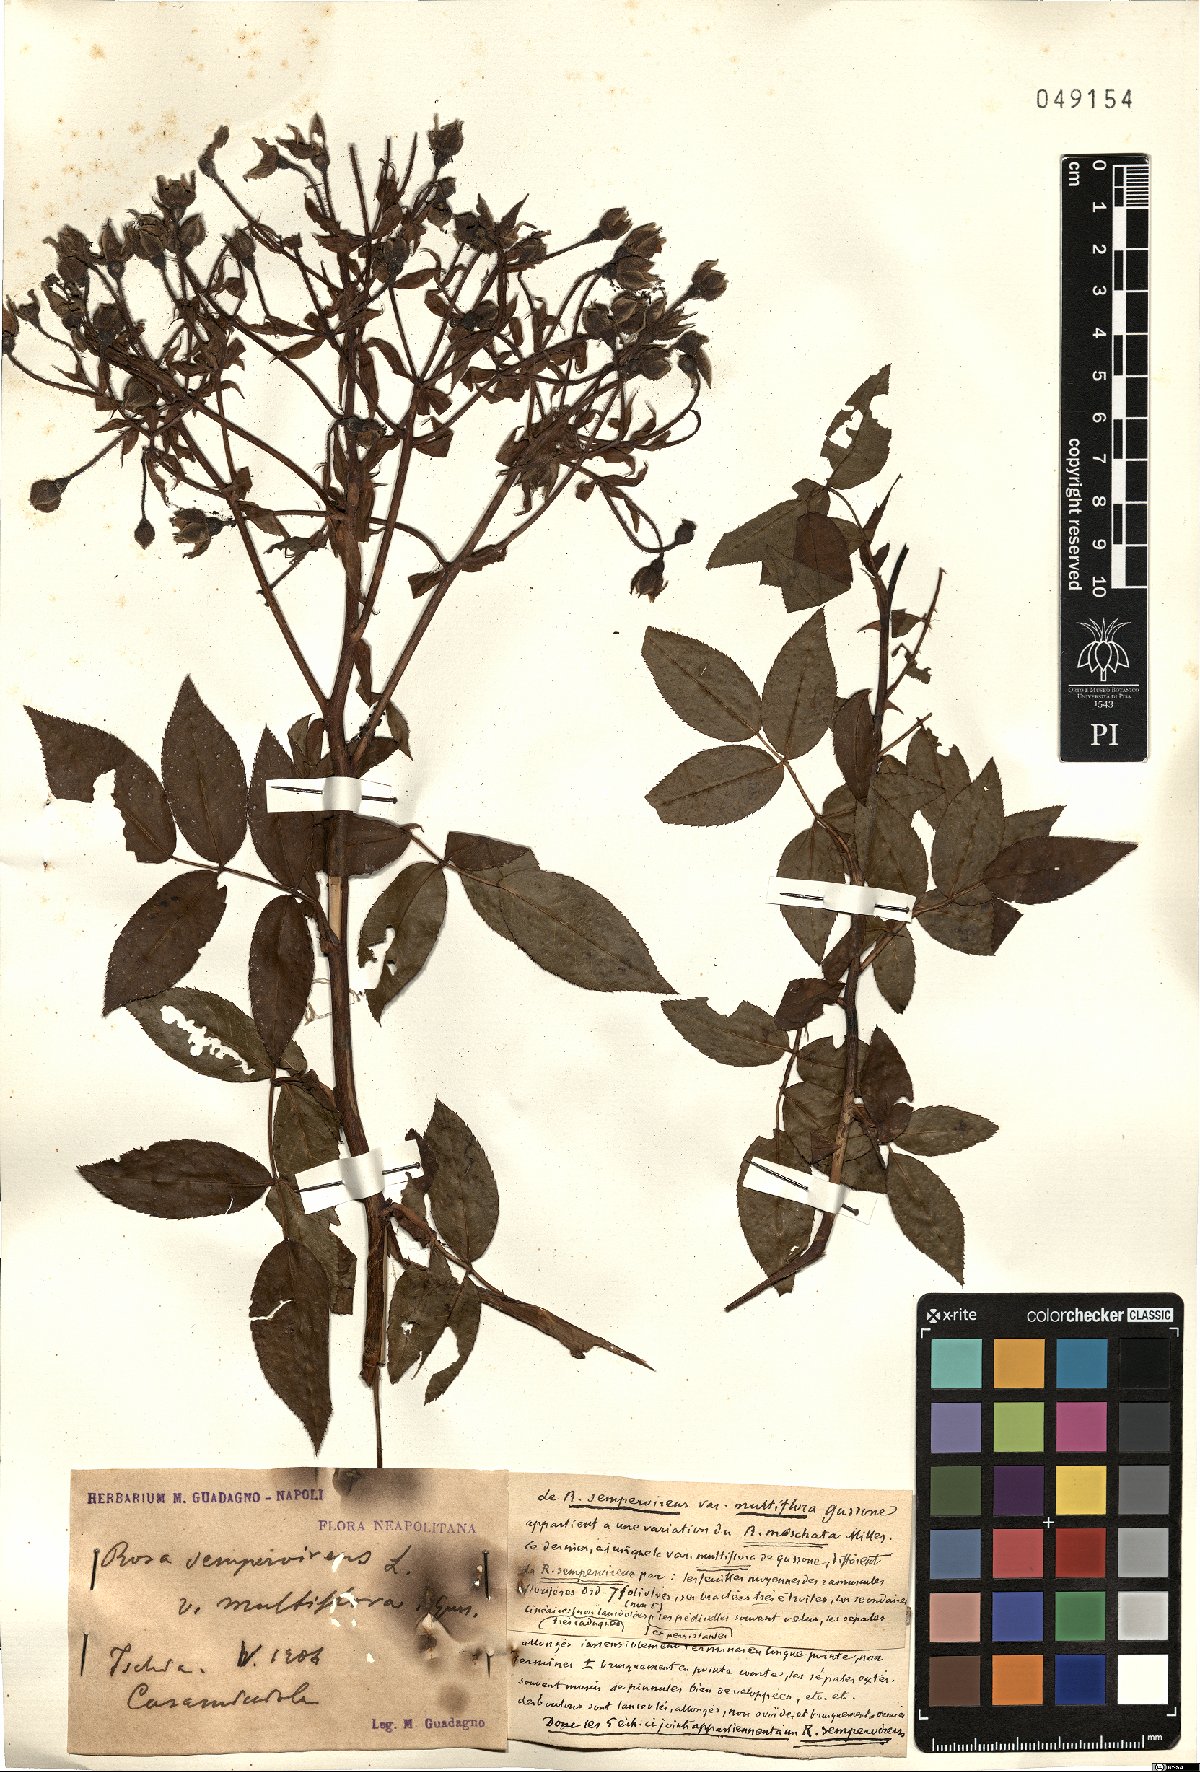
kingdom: Plantae
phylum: Tracheophyta
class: Magnoliopsida
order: Rosales
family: Rosaceae
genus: Rosa
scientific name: Rosa sempervirens
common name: Evergreen rose
